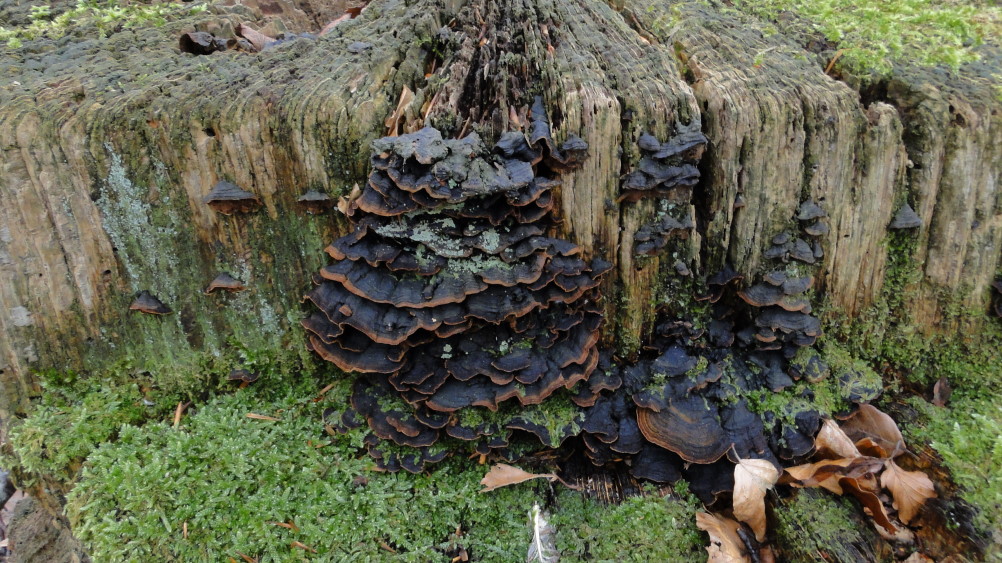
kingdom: Fungi
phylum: Basidiomycota
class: Agaricomycetes
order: Hymenochaetales
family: Hymenochaetaceae
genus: Hymenochaete
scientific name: Hymenochaete rubiginosa
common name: stiv ruslædersvamp
